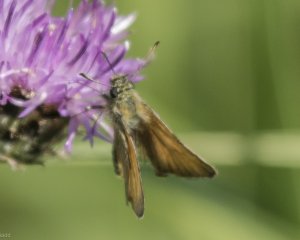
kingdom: Animalia
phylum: Arthropoda
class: Insecta
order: Lepidoptera
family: Hesperiidae
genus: Thymelicus
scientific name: Thymelicus lineola
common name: European Skipper
